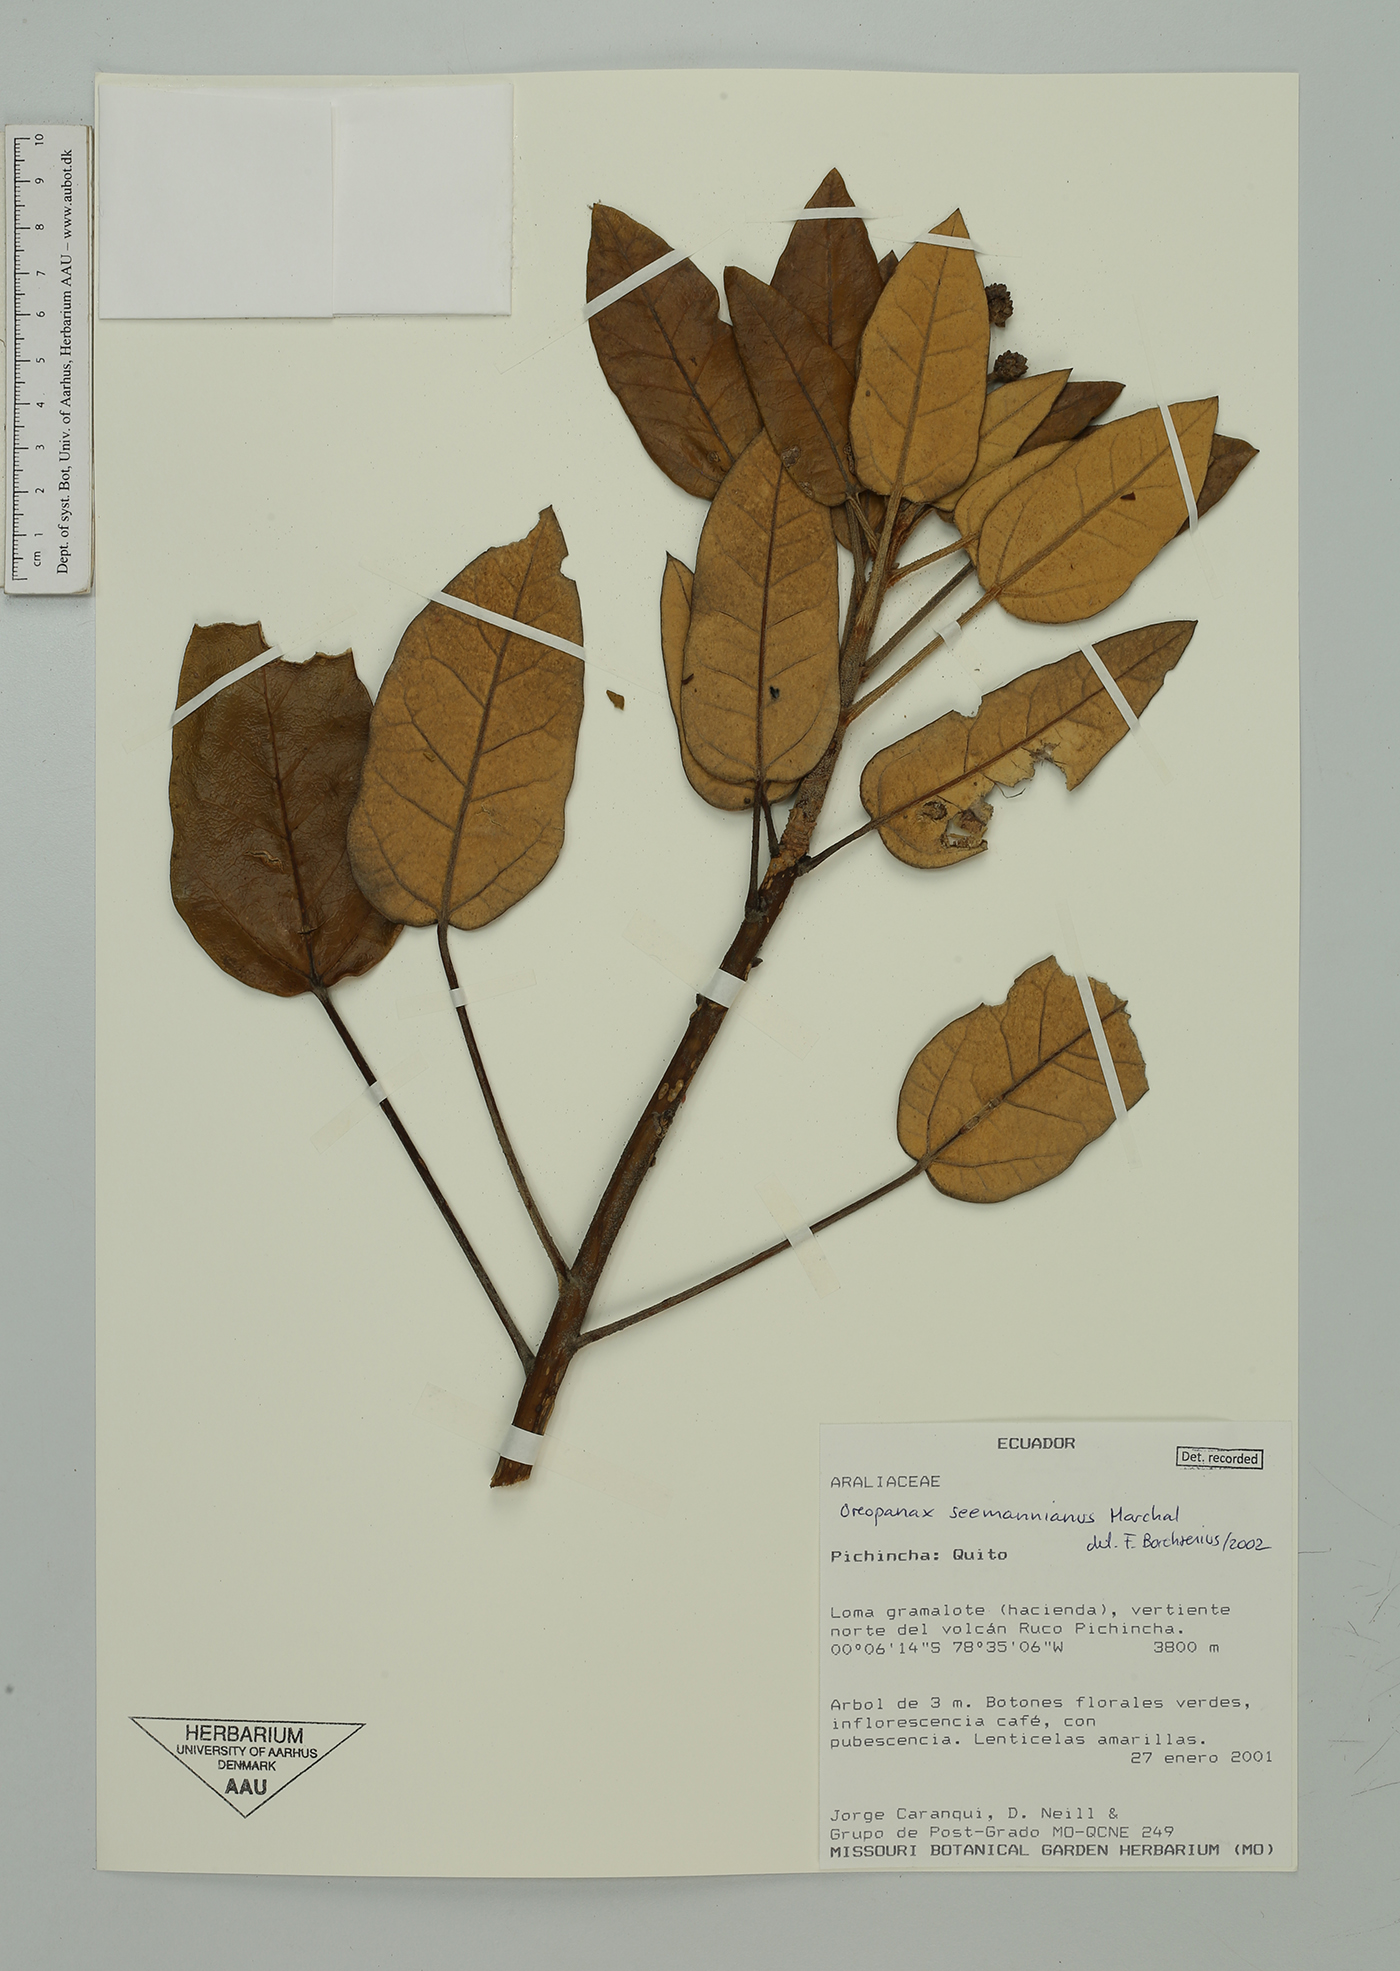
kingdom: Plantae
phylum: Tracheophyta
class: Magnoliopsida
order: Apiales
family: Araliaceae
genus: Oreopanax
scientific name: Oreopanax seemannianus
